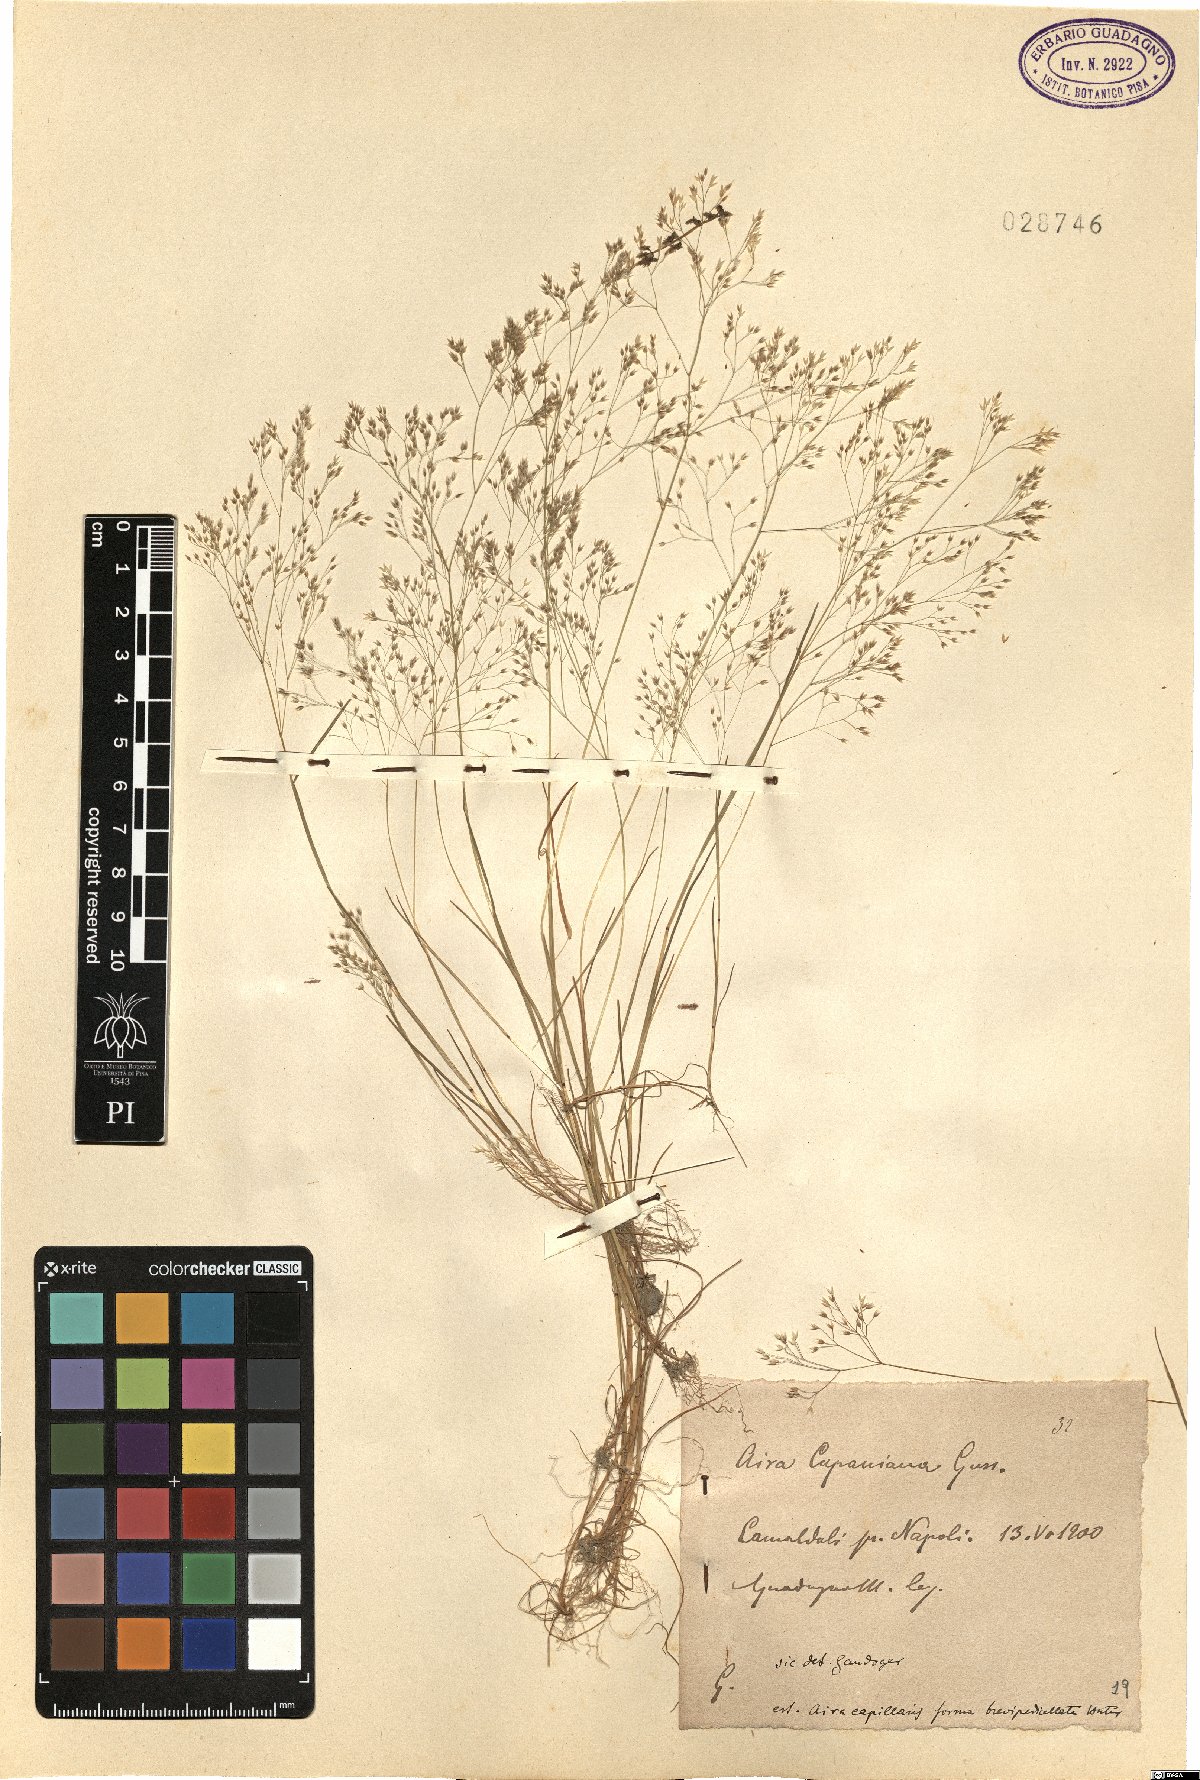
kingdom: Plantae
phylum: Tracheophyta
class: Liliopsida
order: Poales
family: Poaceae
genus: Aira
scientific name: Aira elegans
